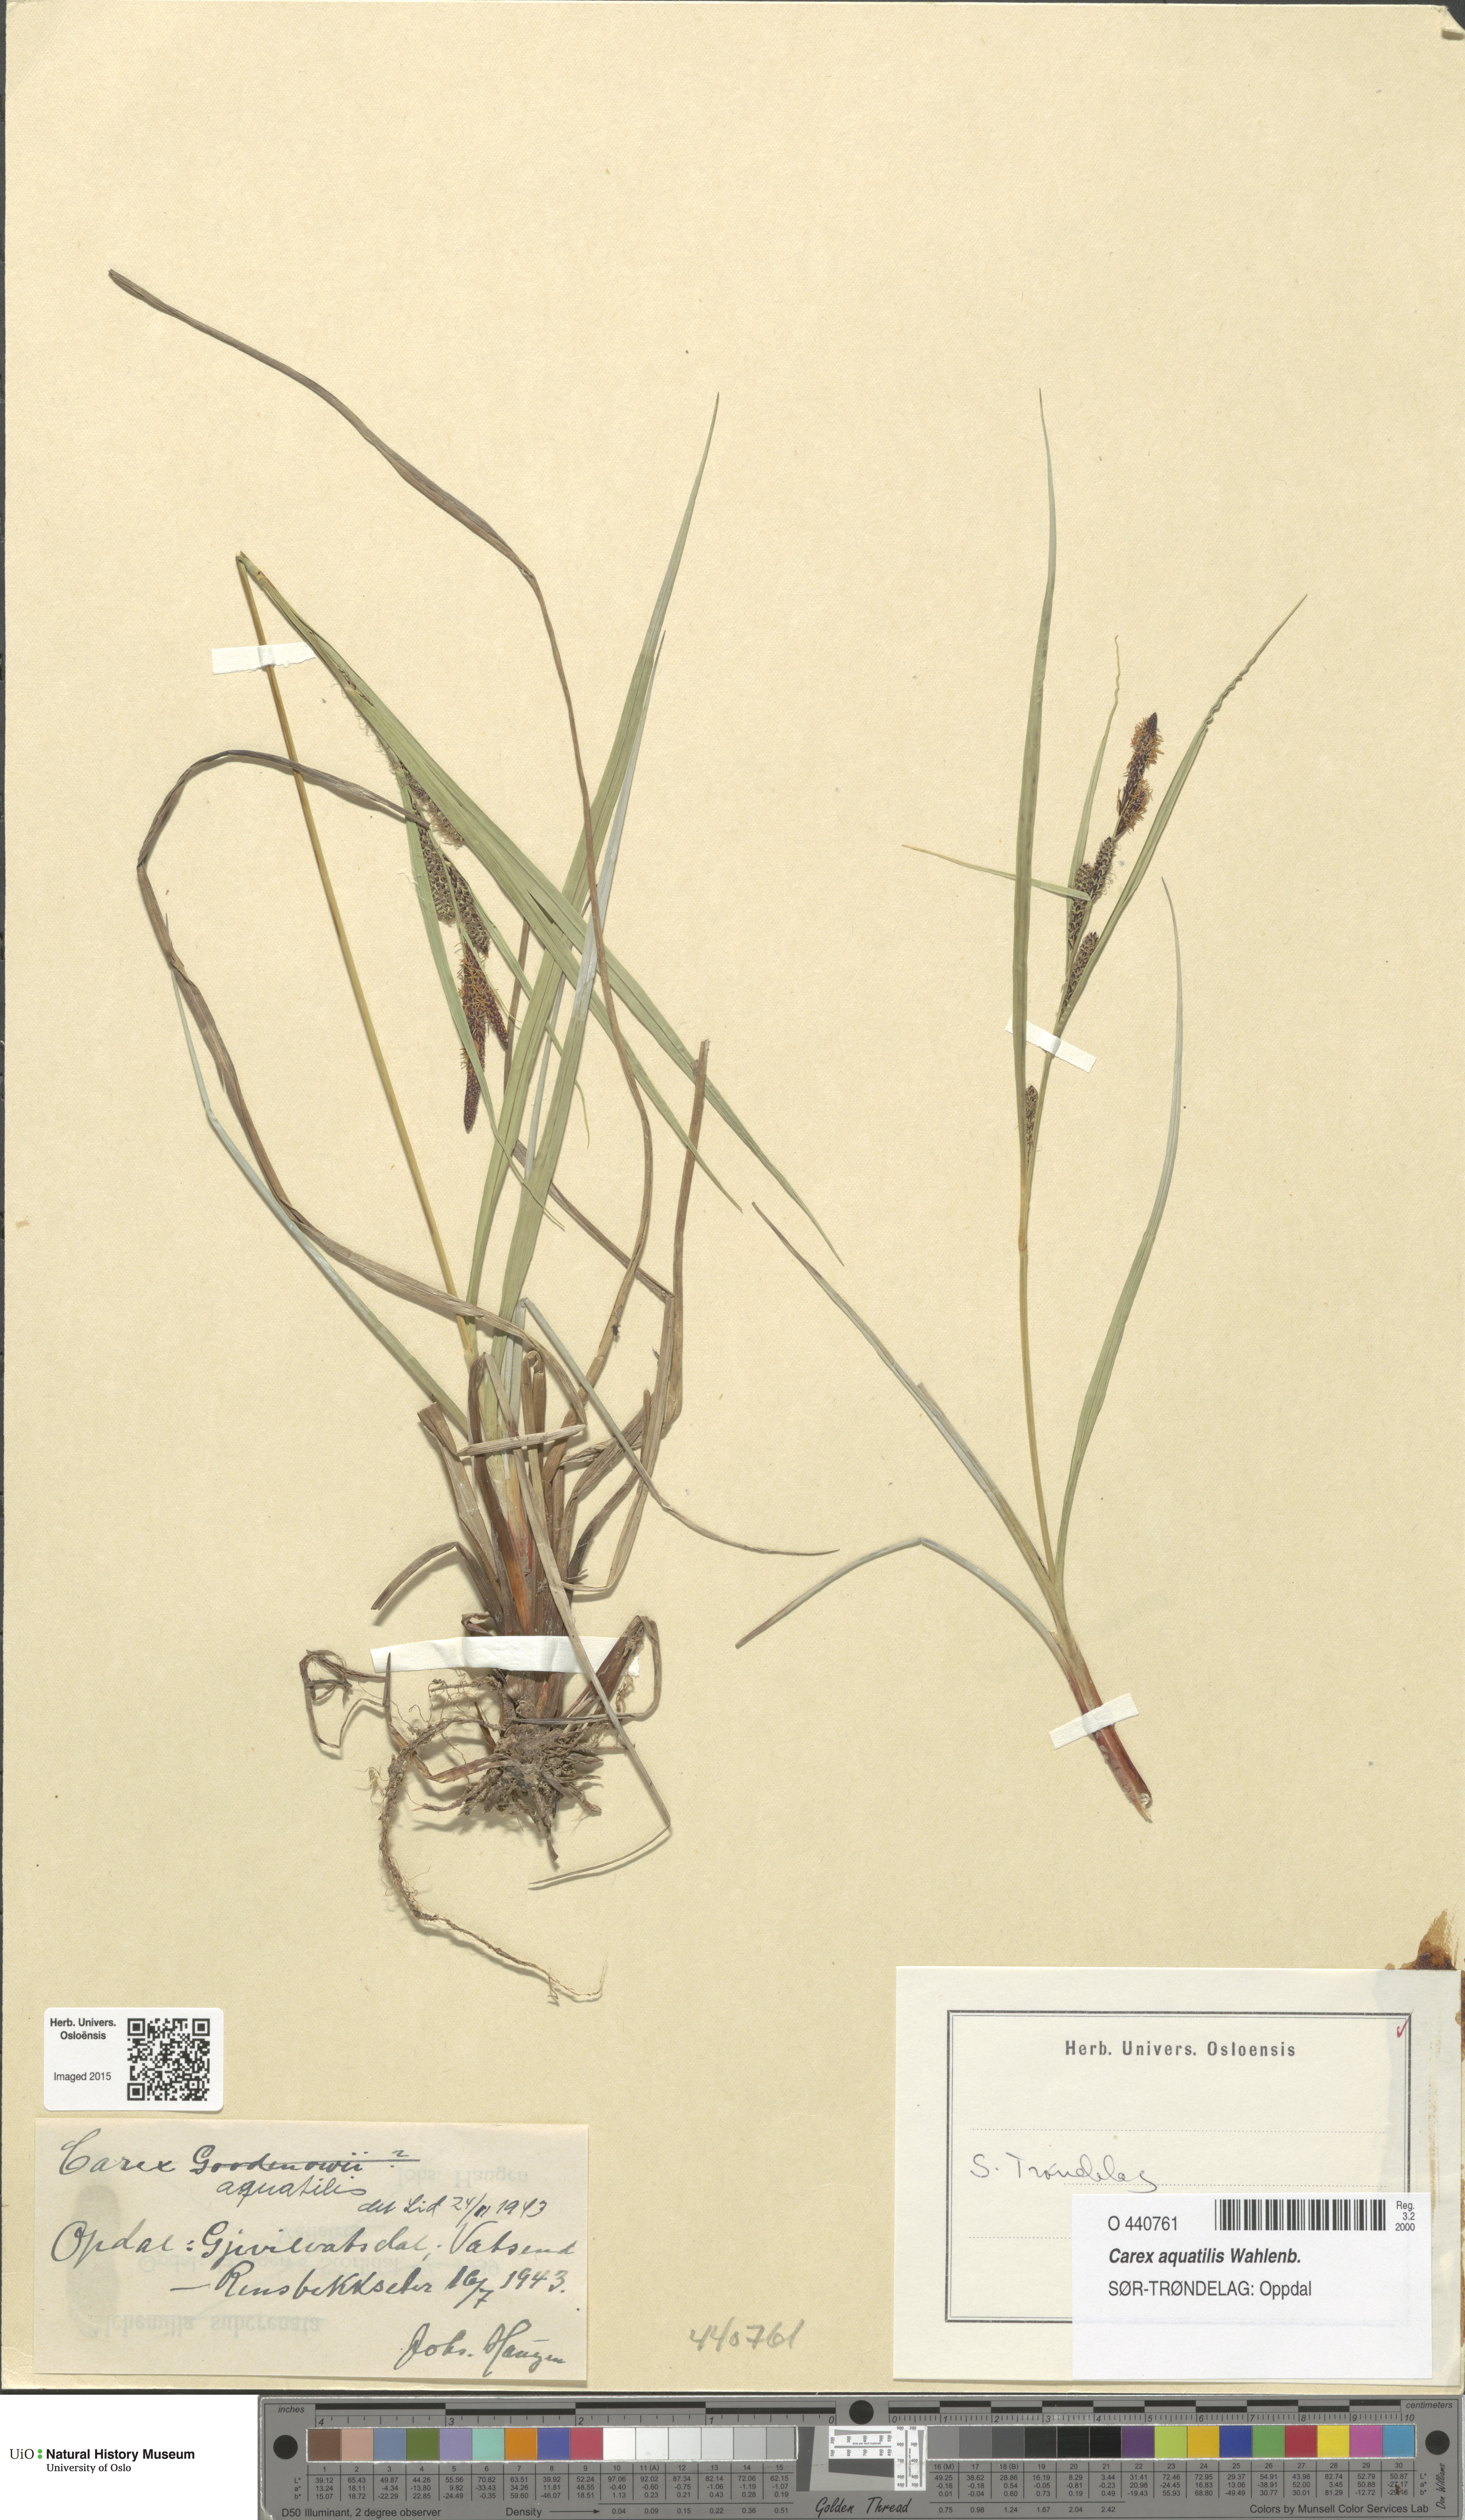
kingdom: Plantae
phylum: Tracheophyta
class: Liliopsida
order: Poales
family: Cyperaceae
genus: Carex
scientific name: Carex aquatilis
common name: Water sedge
